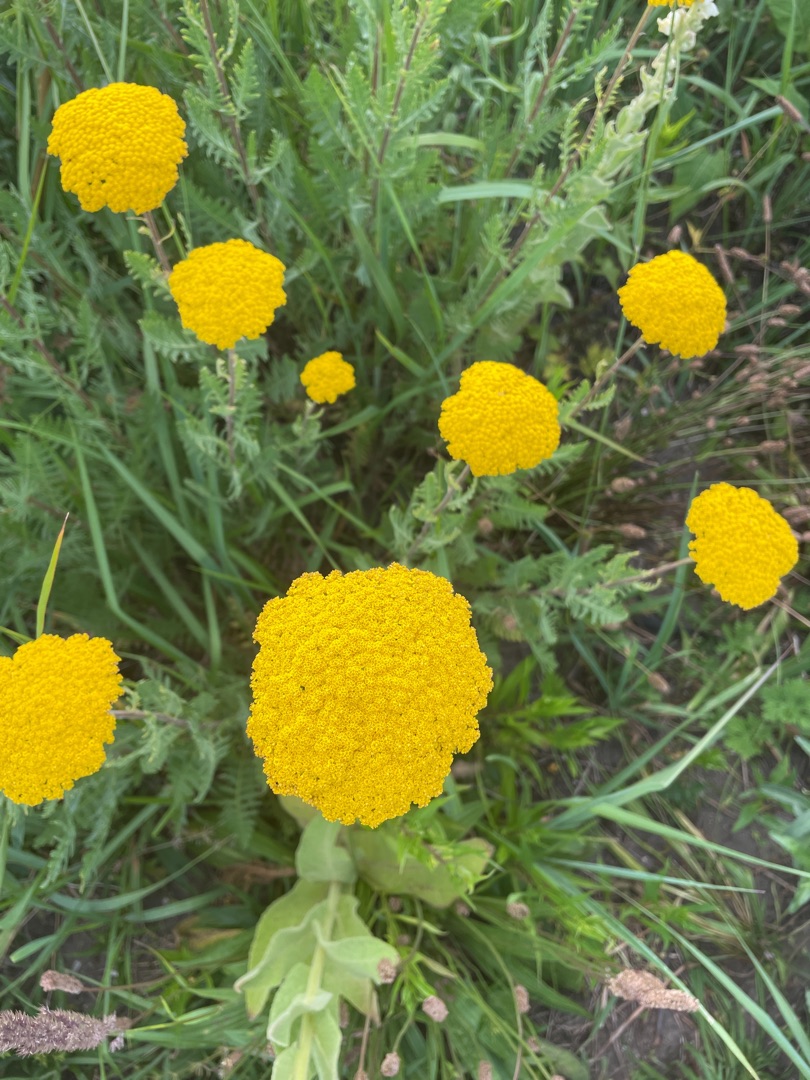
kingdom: Plantae
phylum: Tracheophyta
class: Magnoliopsida
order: Asterales
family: Asteraceae
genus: Achillea
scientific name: Achillea
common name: Røllikeslægten
